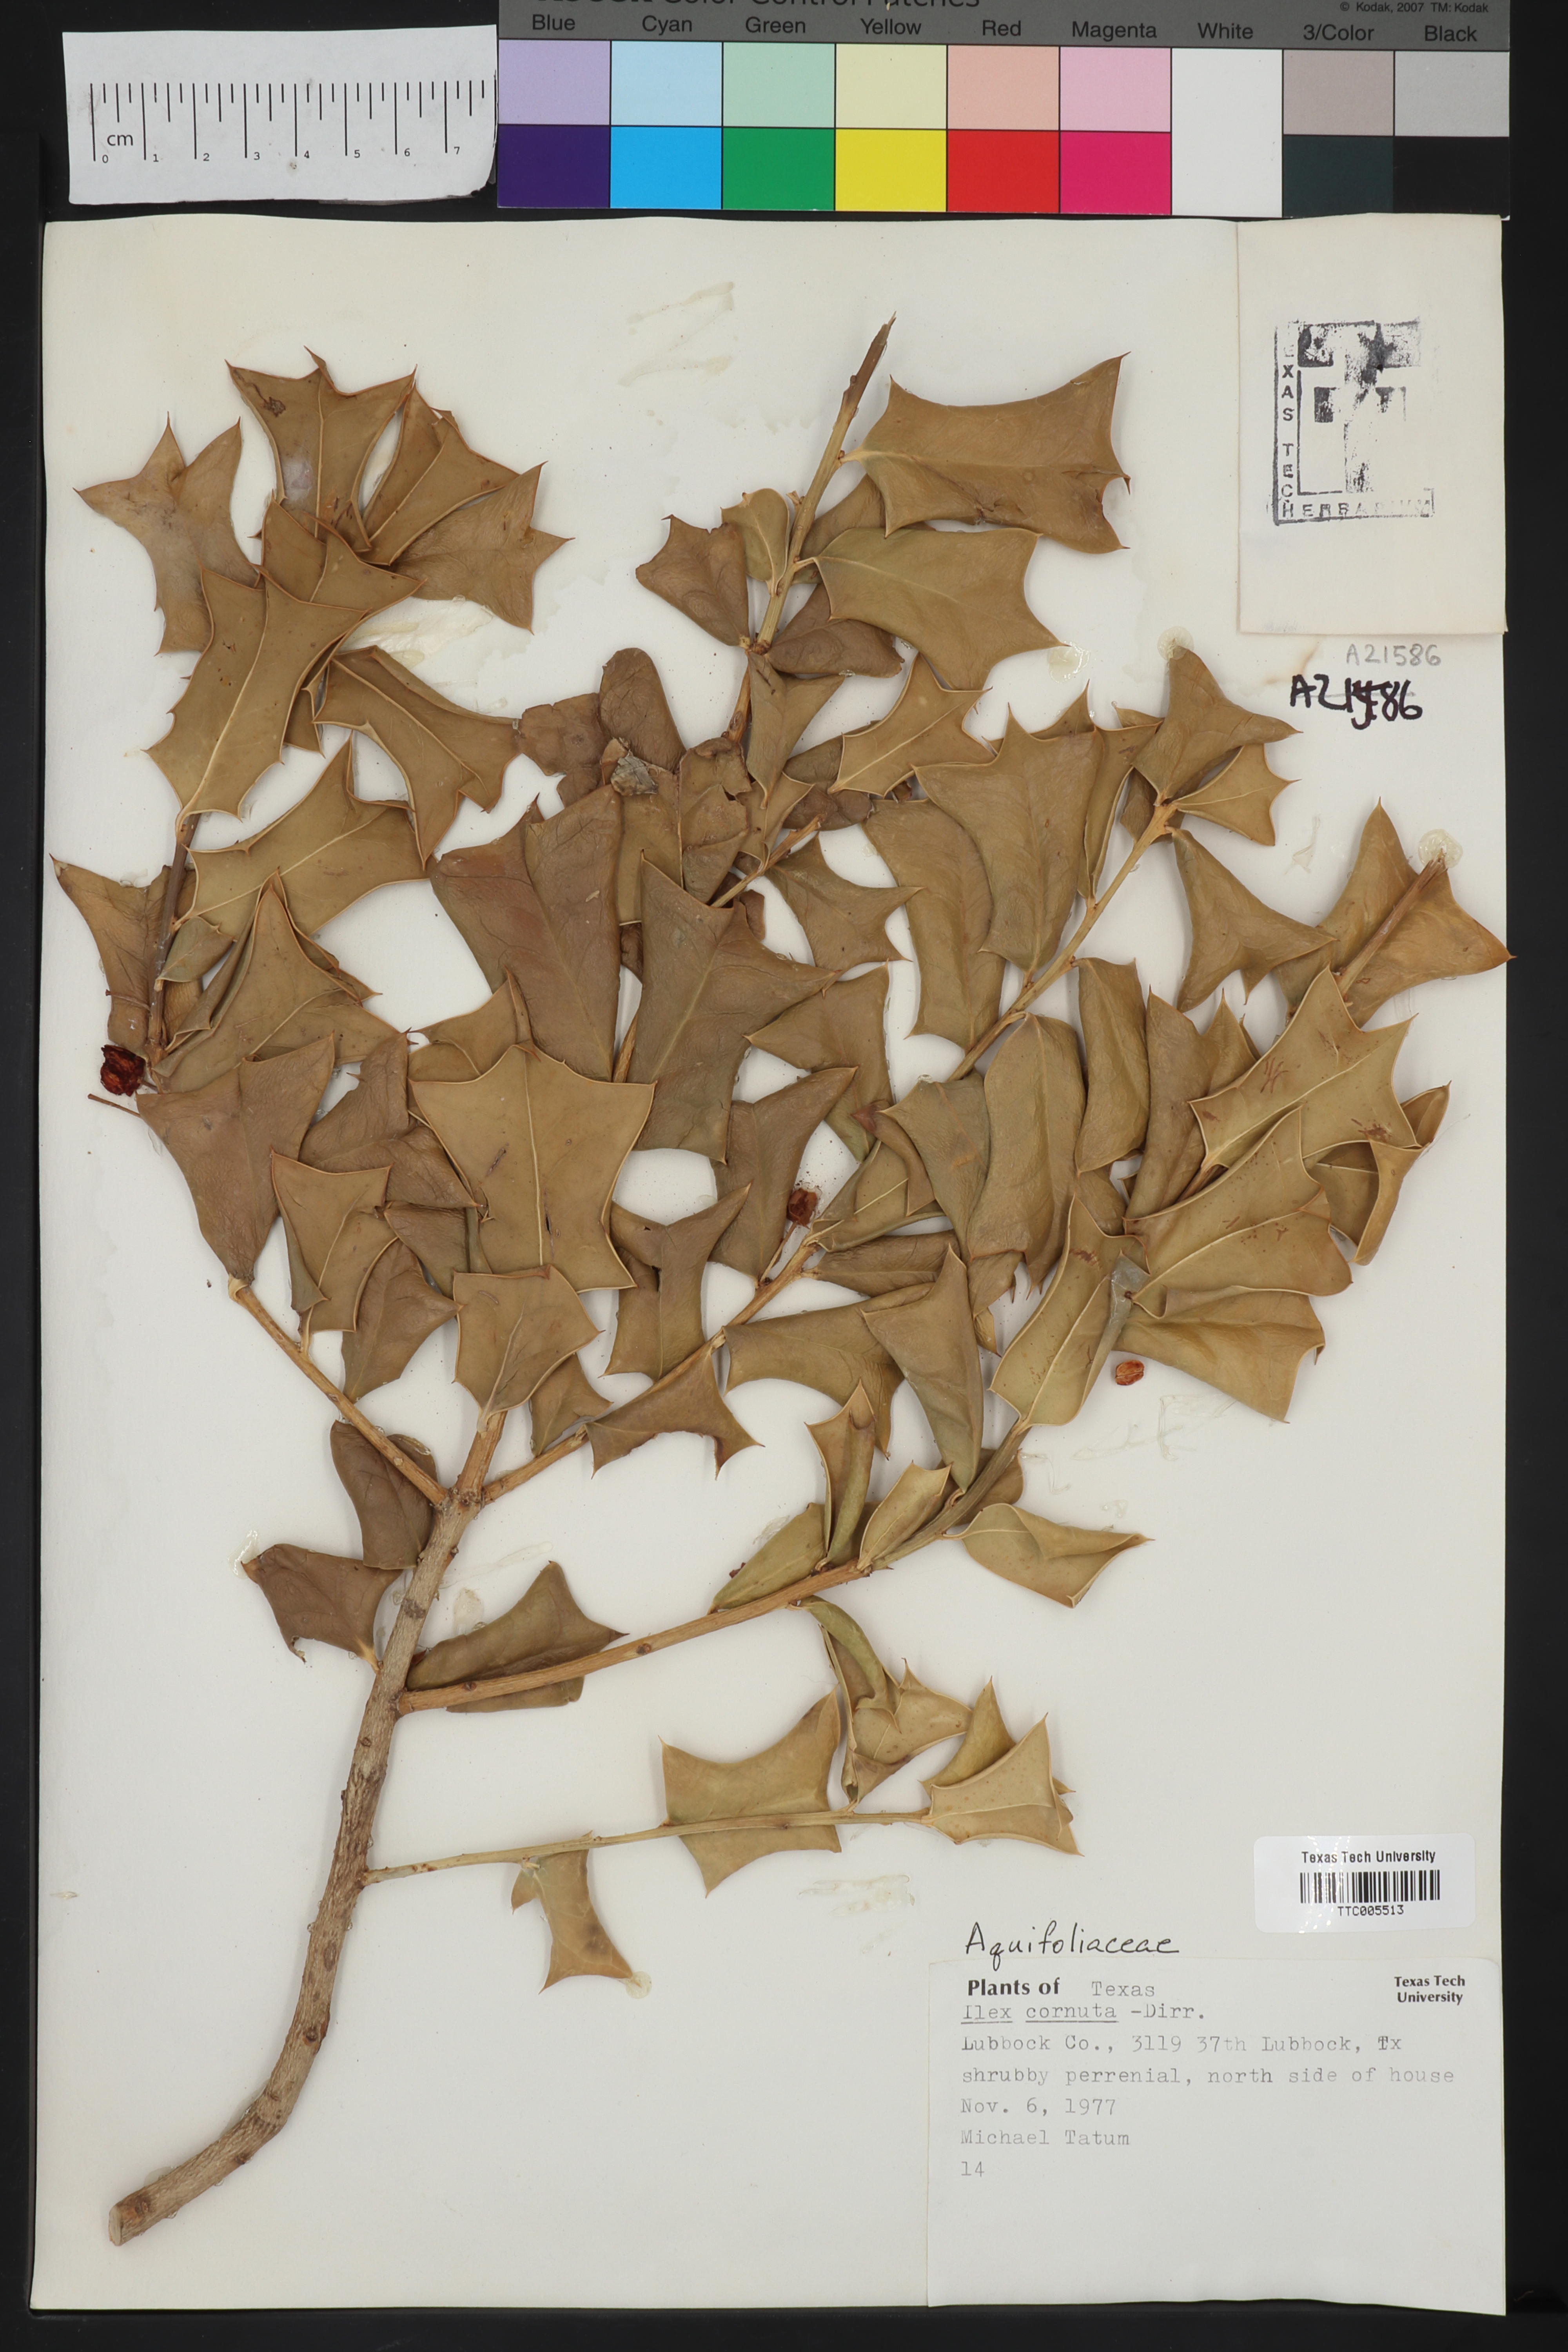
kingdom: Plantae
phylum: Tracheophyta
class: Magnoliopsida
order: Aquifoliales
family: Aquifoliaceae
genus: Ilex
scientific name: Ilex cornuta
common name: Chinese holly
